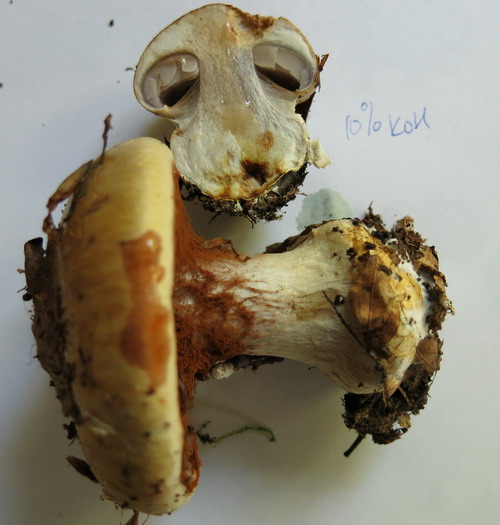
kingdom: Fungi
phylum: Basidiomycota
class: Agaricomycetes
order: Agaricales
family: Cortinariaceae
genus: Cortinarius
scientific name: Cortinarius anserinus
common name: bøge-slørhat
